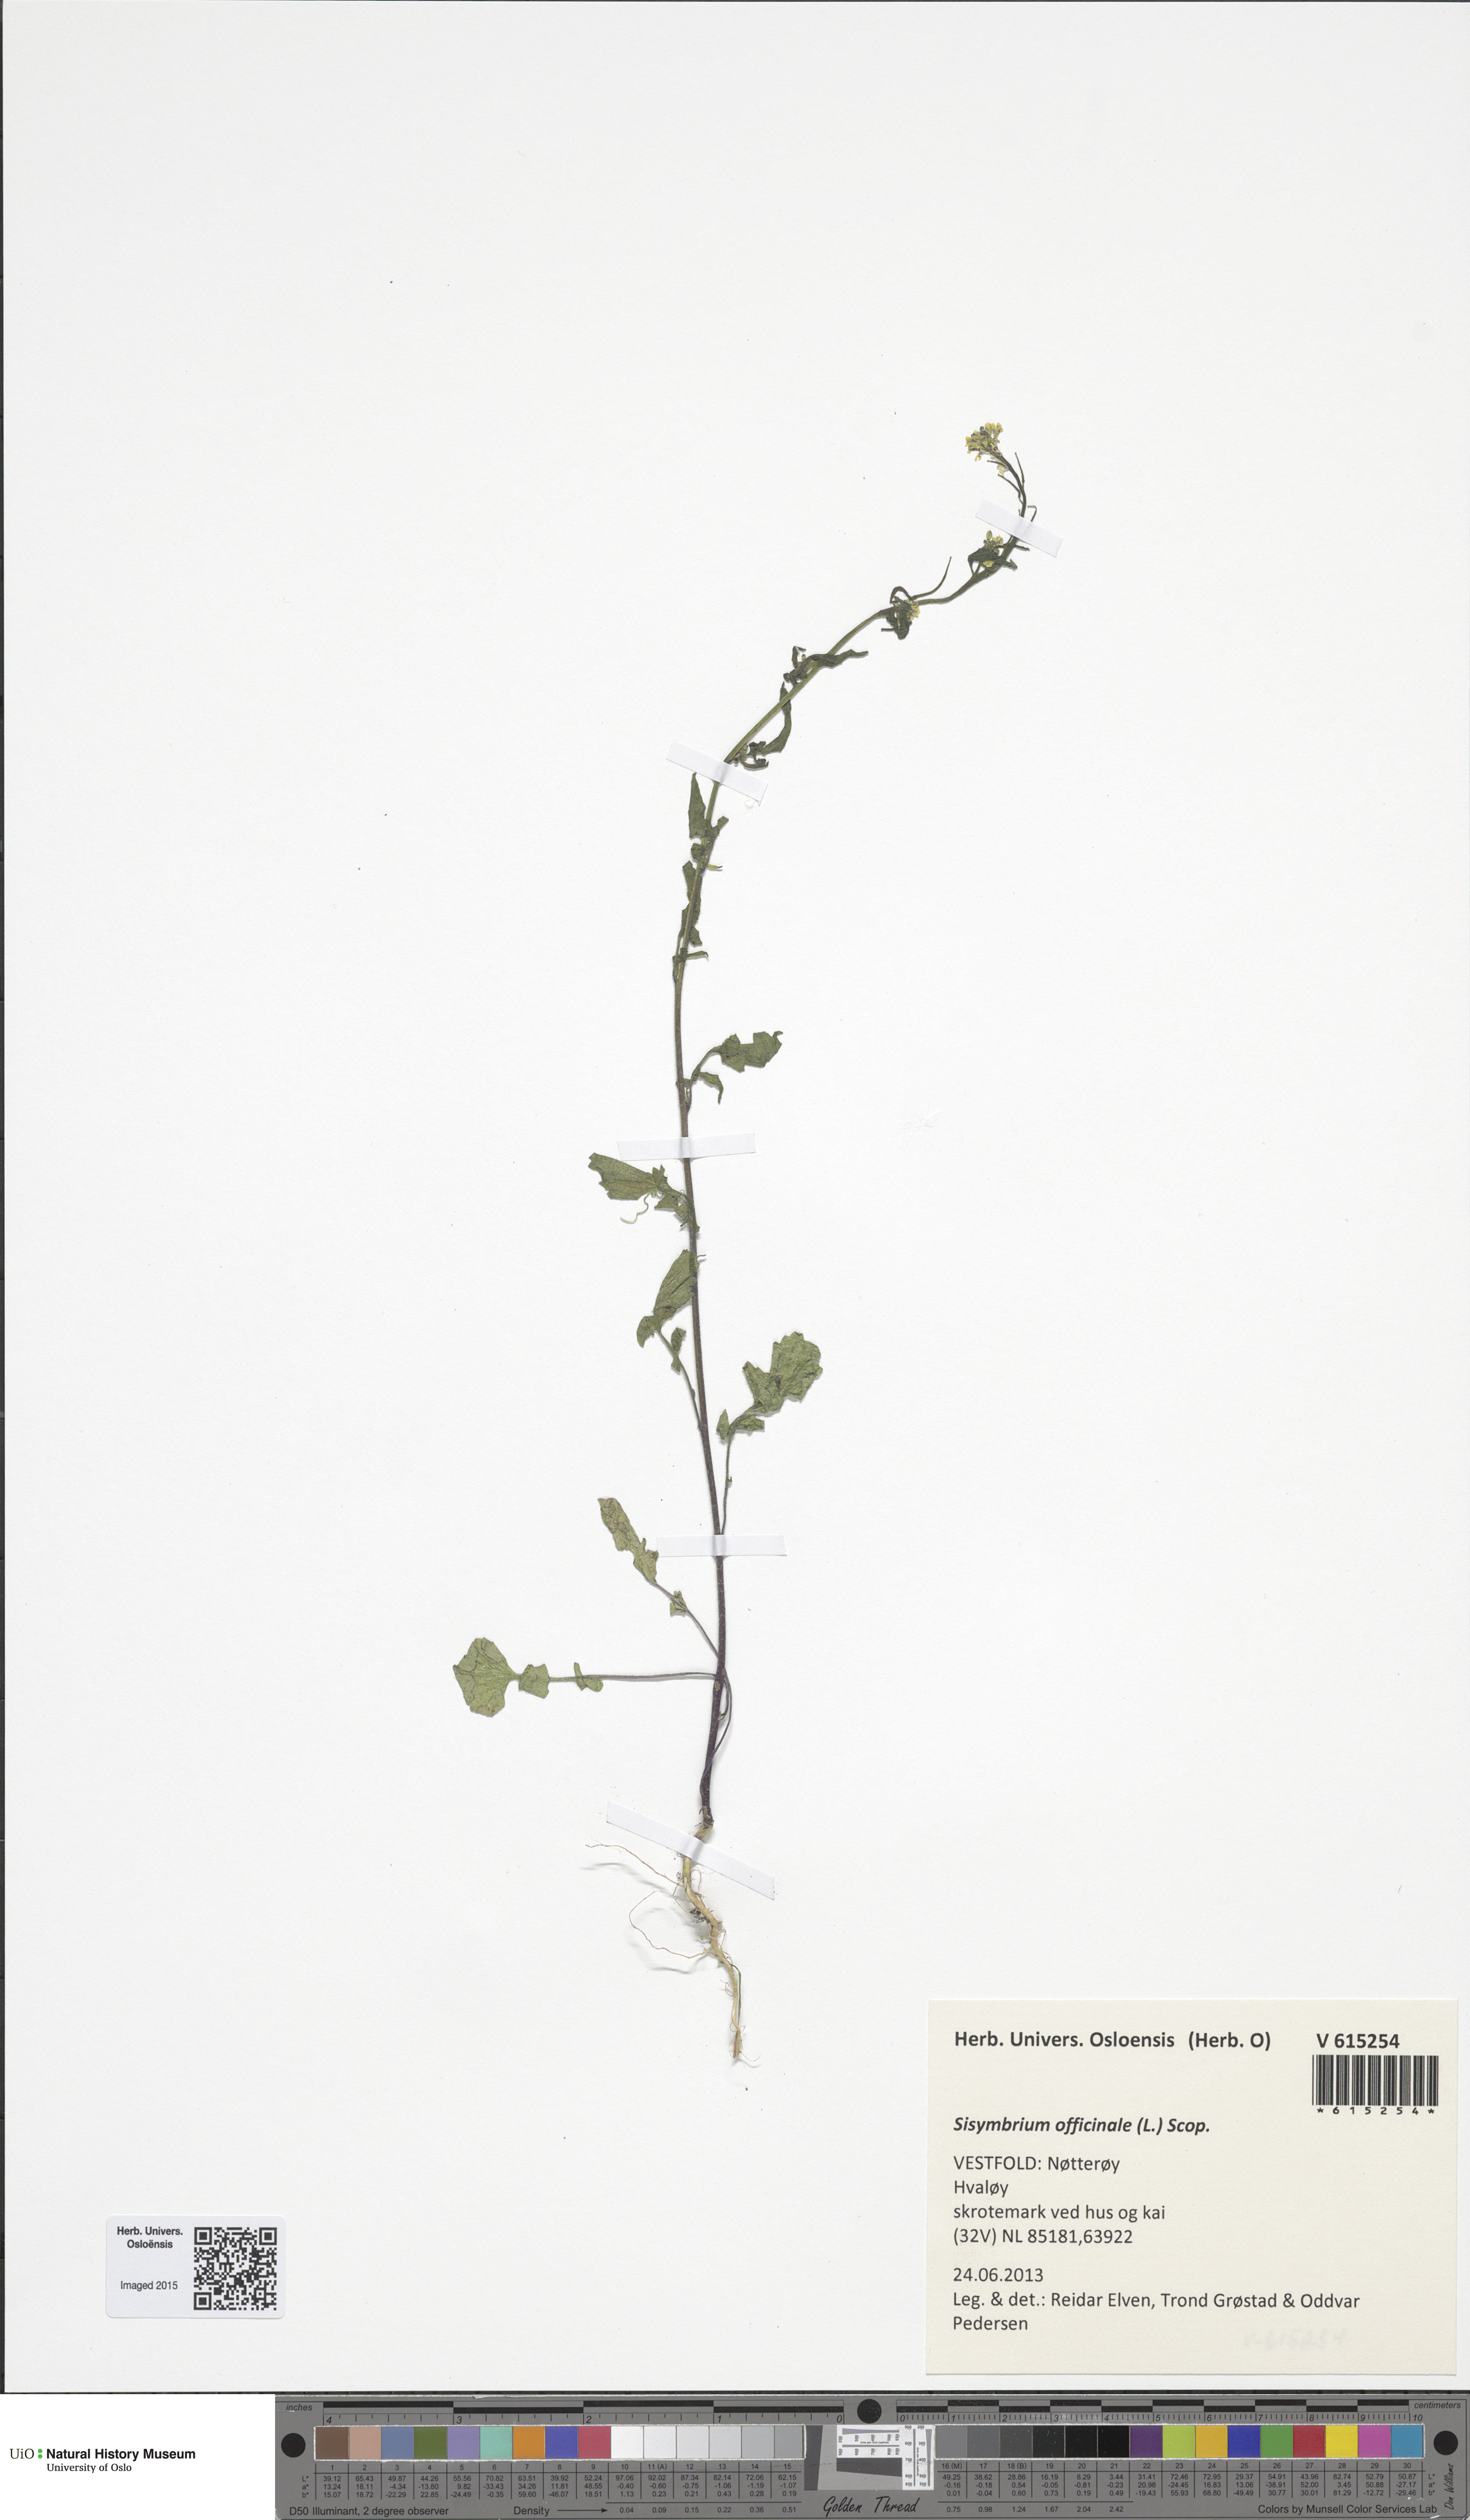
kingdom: Plantae
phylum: Tracheophyta
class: Magnoliopsida
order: Brassicales
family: Brassicaceae
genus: Sisymbrium
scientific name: Sisymbrium officinale
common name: Hedge mustard
